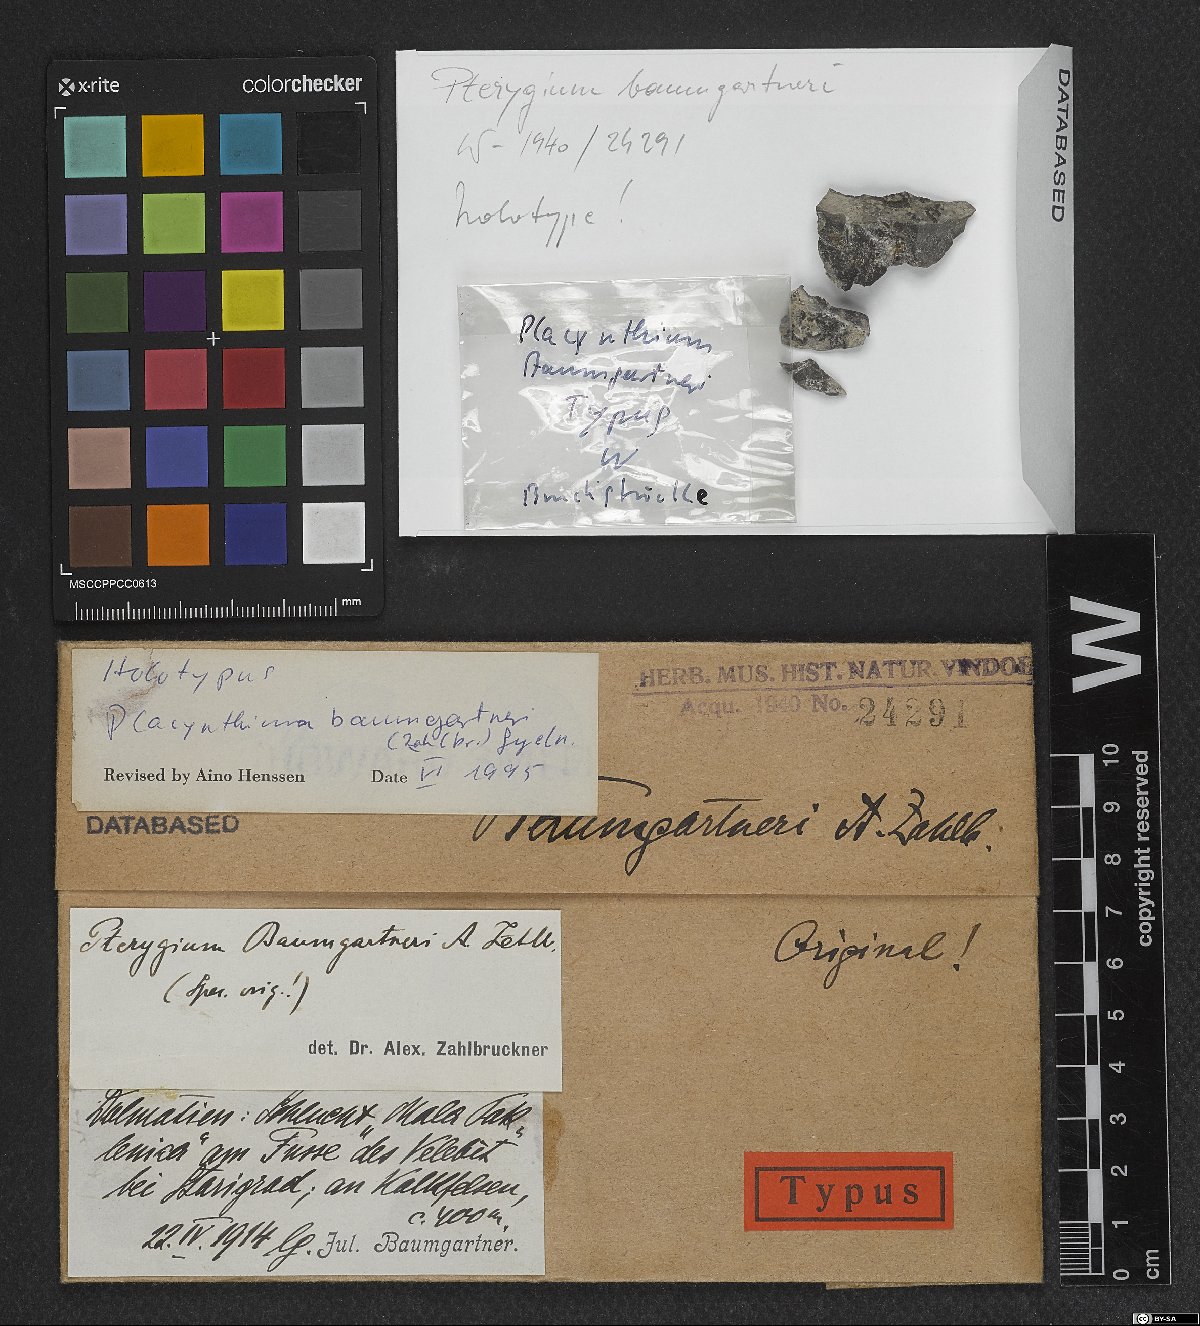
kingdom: Fungi
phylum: Ascomycota
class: Lecanoromycetes
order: Peltigerales
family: Placynthiaceae
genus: Placynthium
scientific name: Placynthium coerulescens
